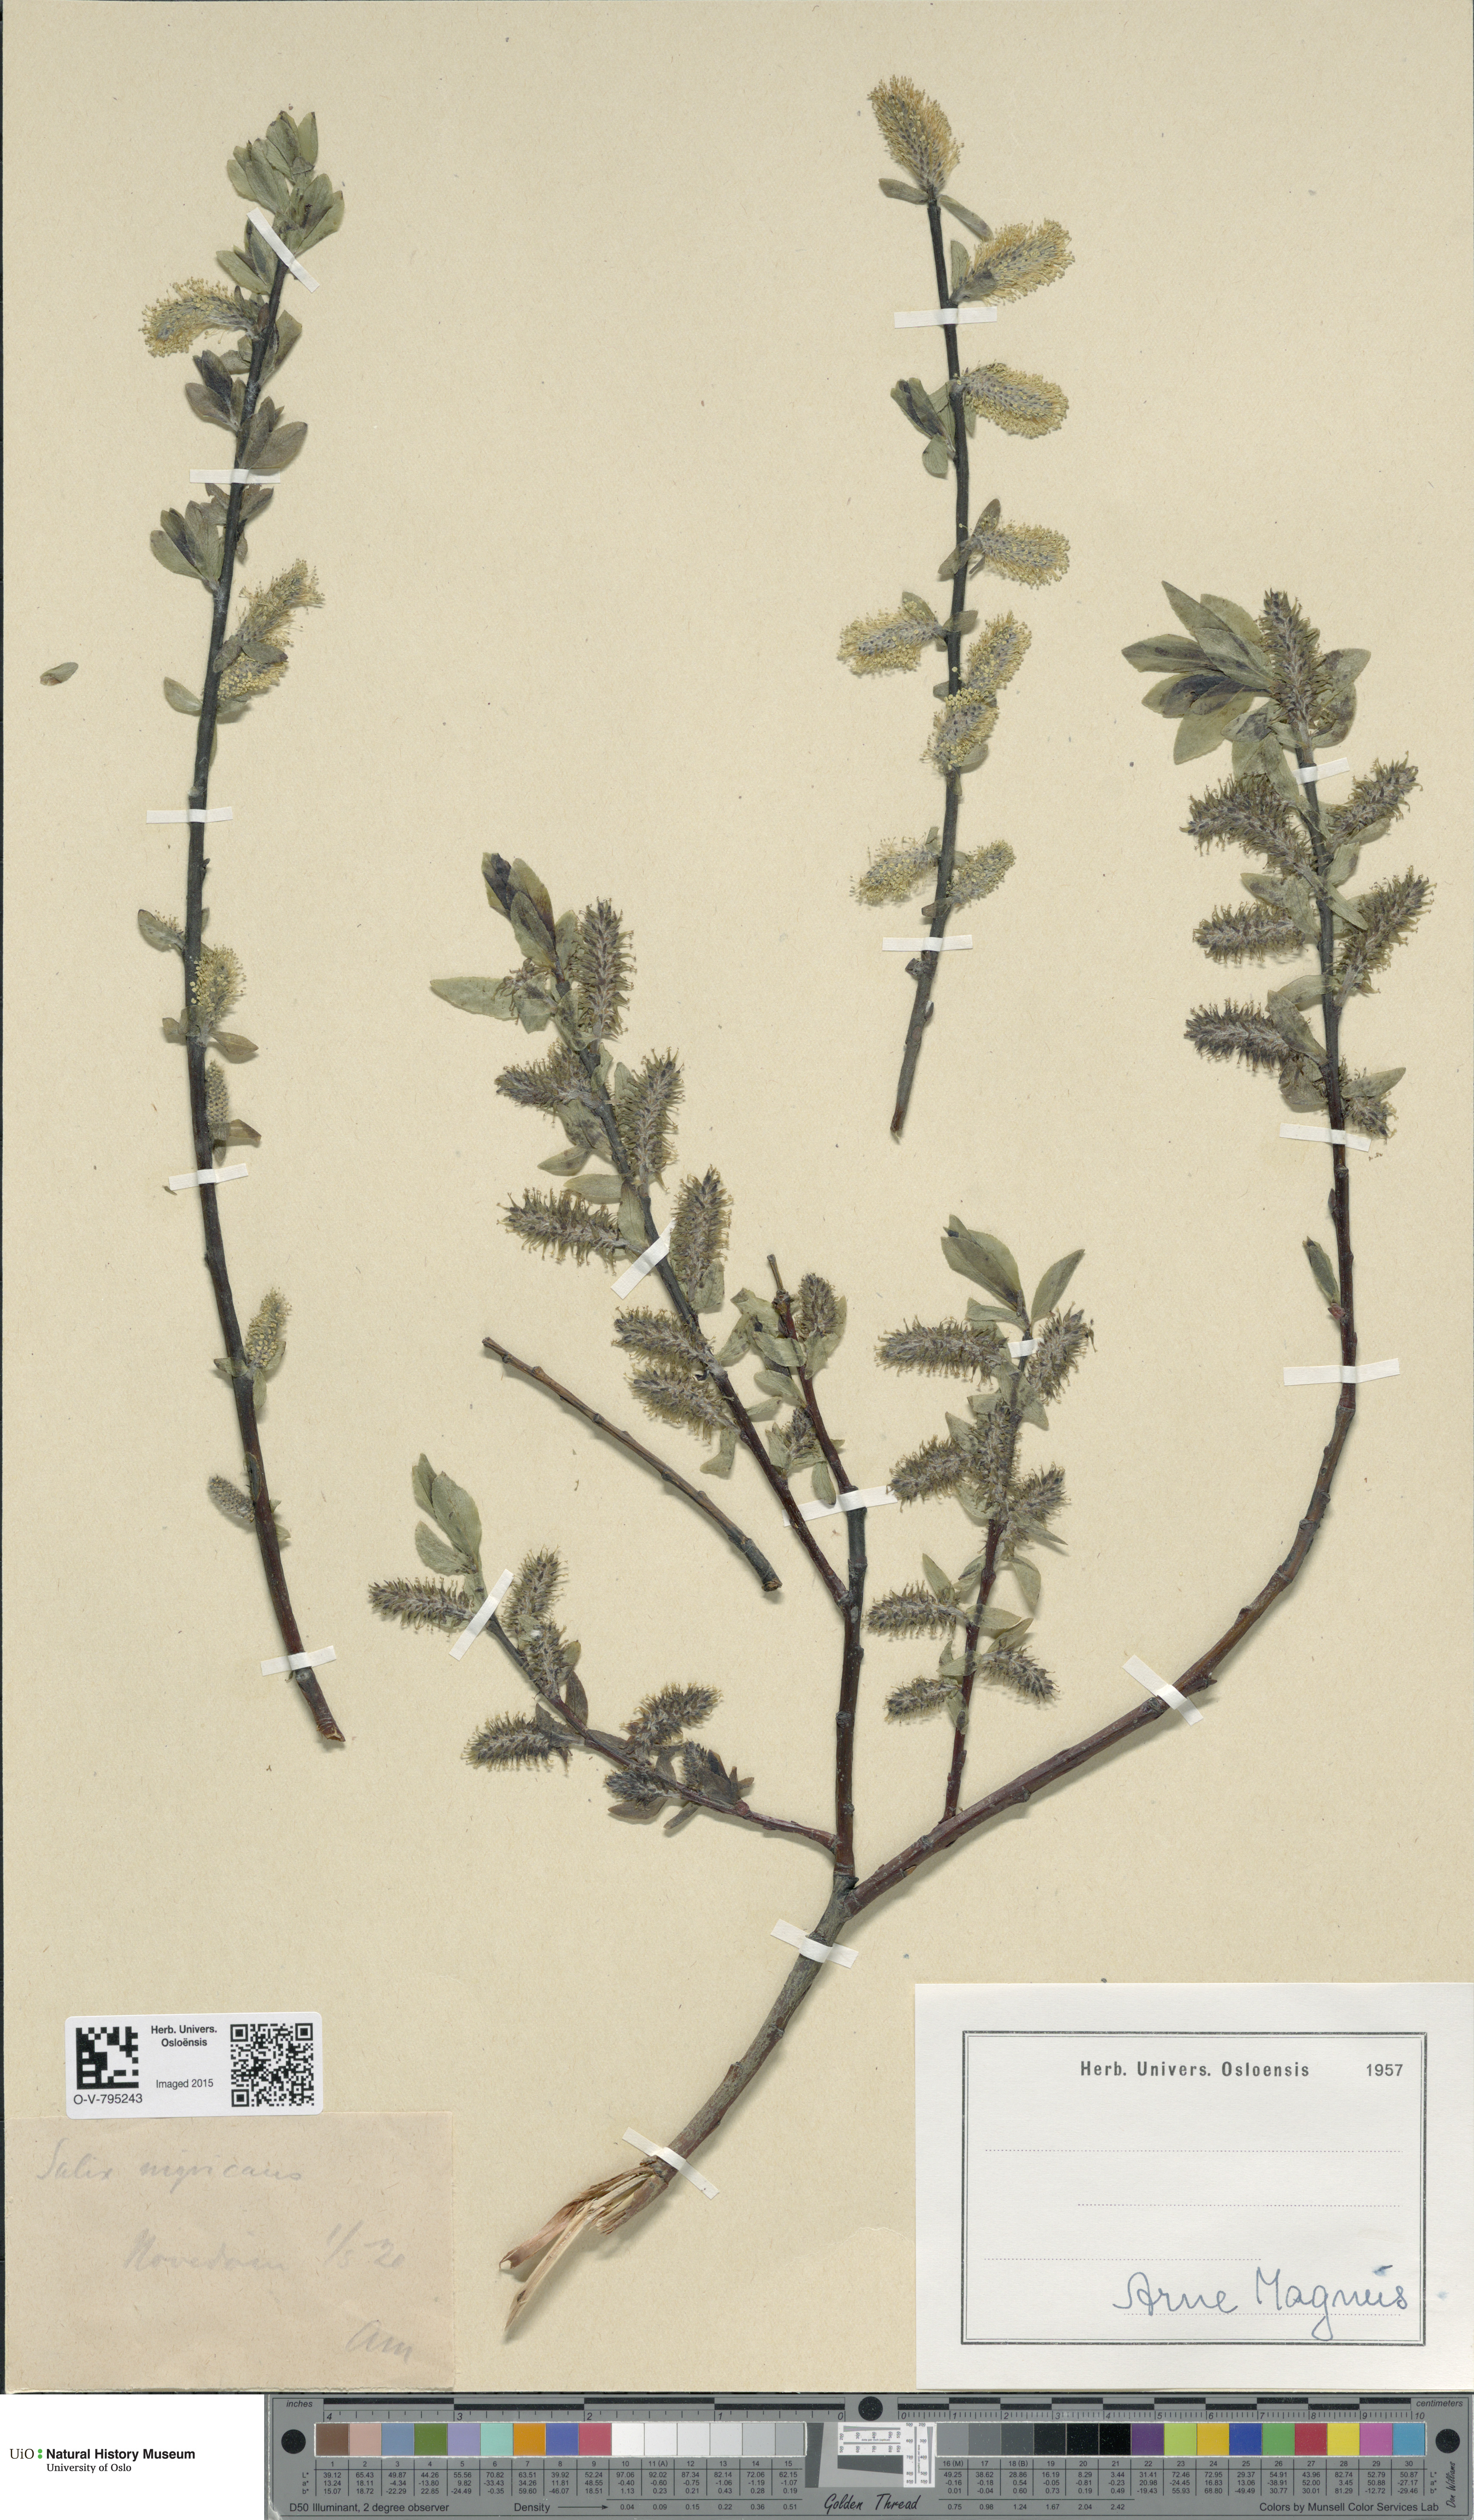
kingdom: Plantae
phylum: Tracheophyta
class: Magnoliopsida
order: Malpighiales
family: Salicaceae
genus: Salix
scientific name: Salix myrsinifolia
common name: Dark-leaved willow
